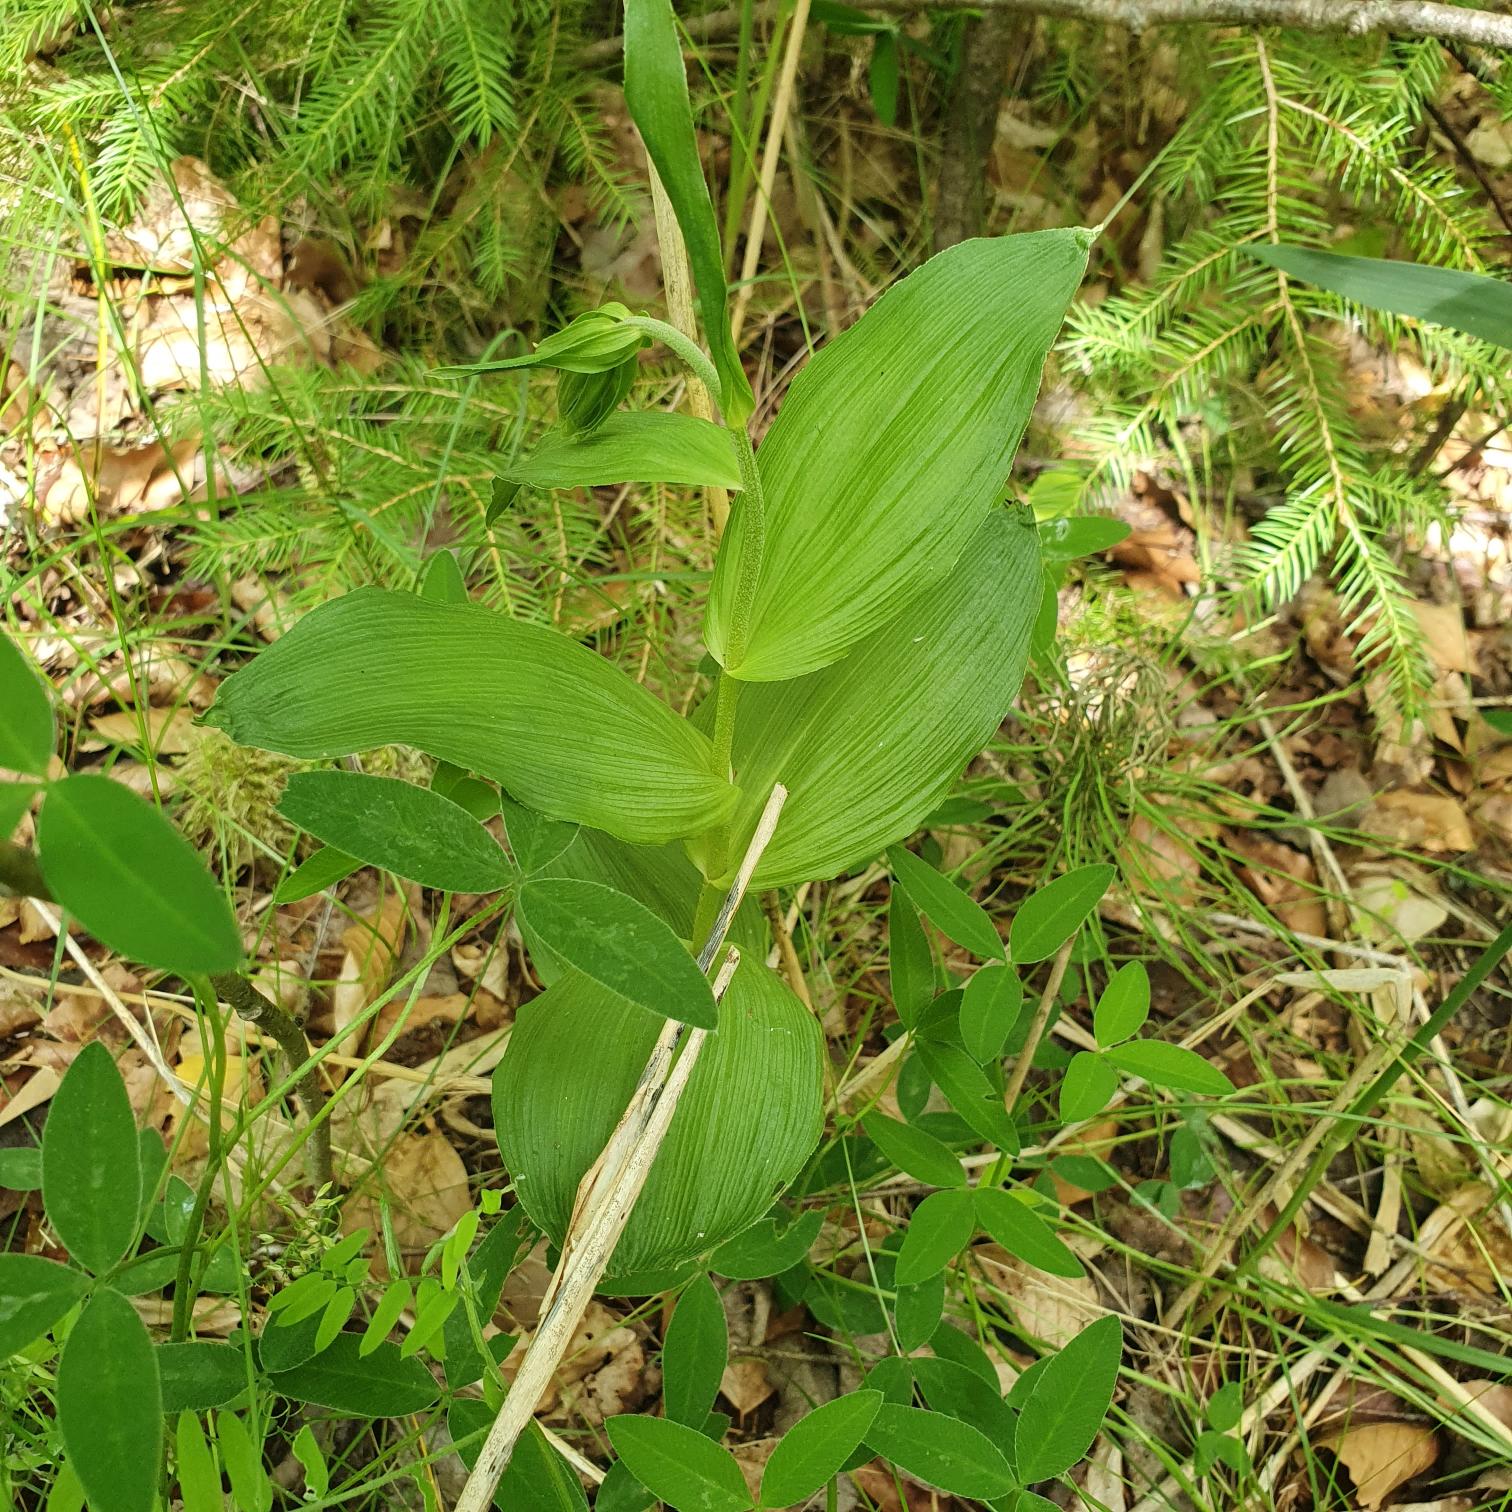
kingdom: Plantae
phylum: Tracheophyta
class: Liliopsida
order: Asparagales
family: Orchidaceae
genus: Epipactis
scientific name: Epipactis helleborine
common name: Skov-hullæbe
